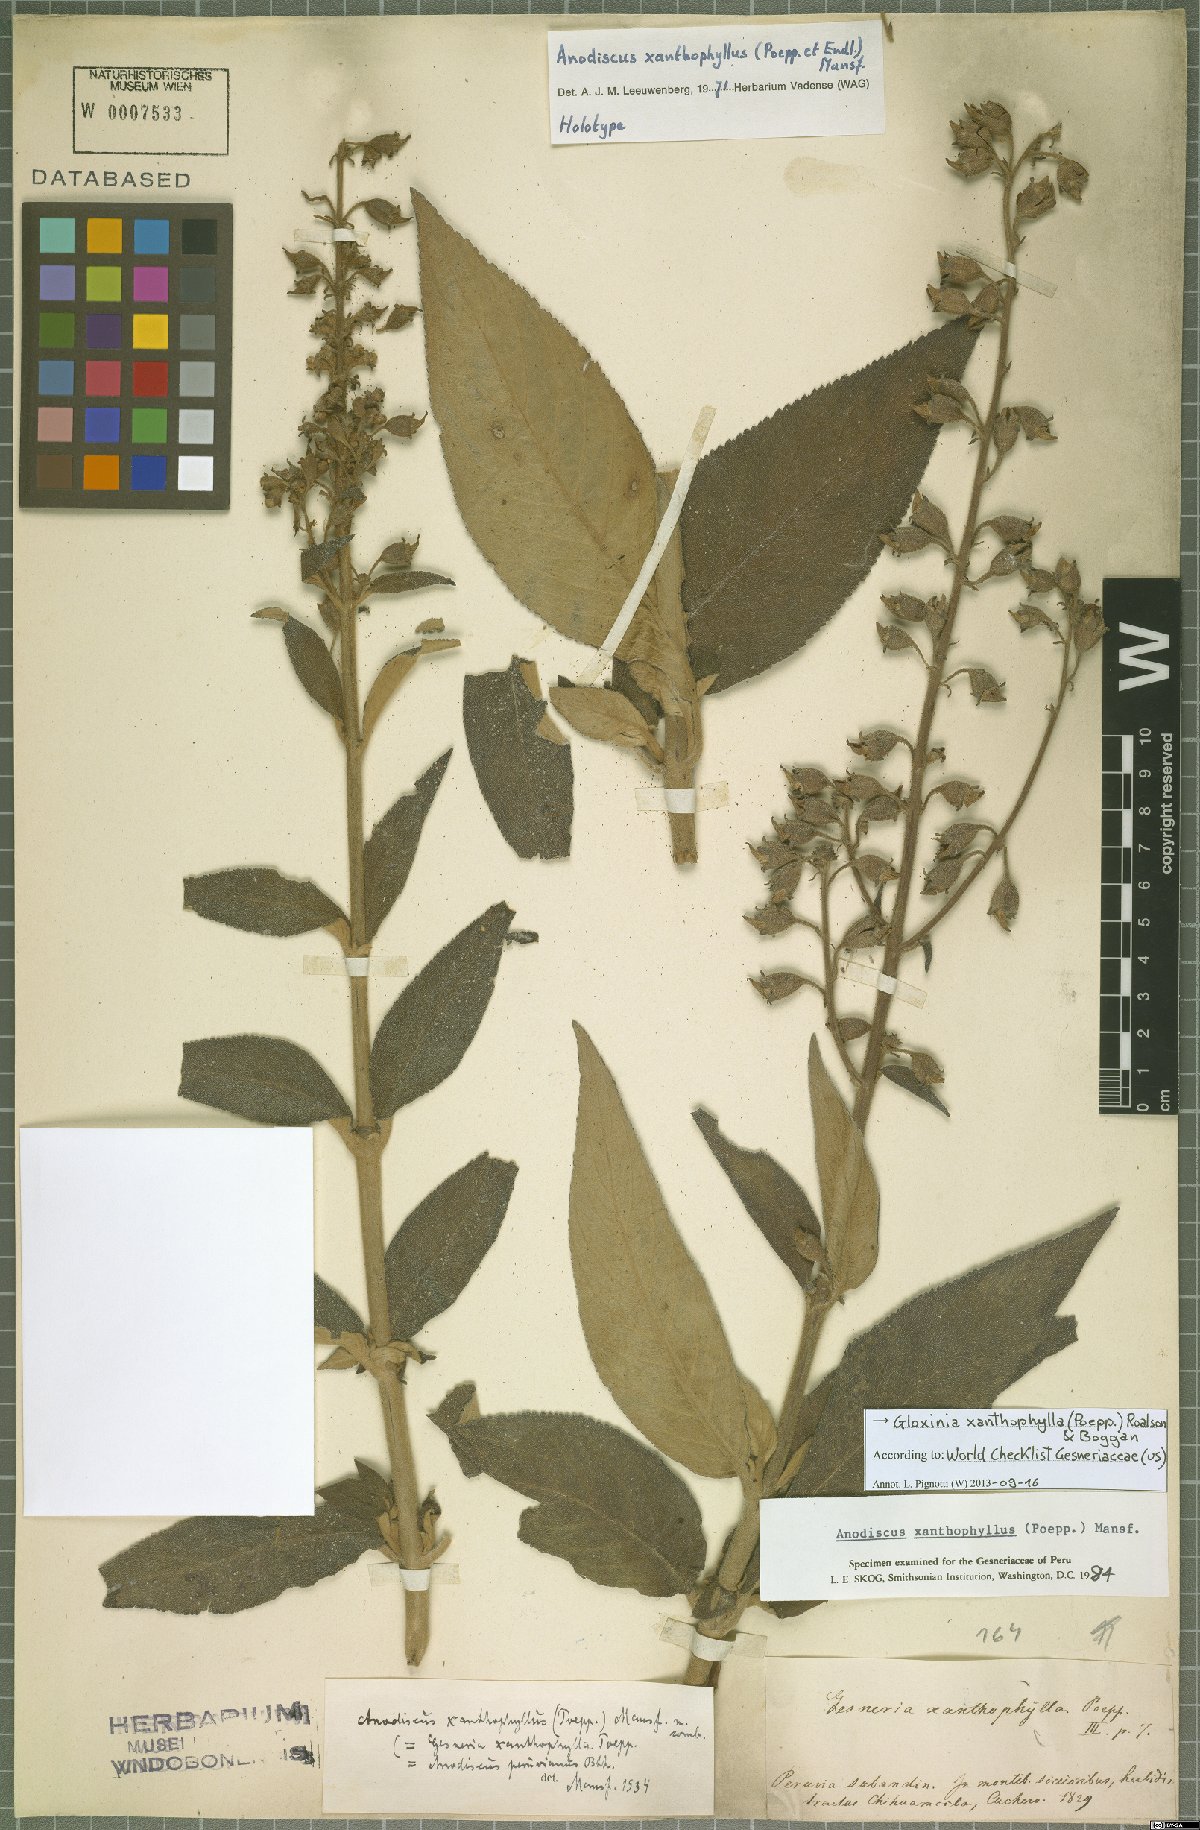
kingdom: Plantae
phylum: Tracheophyta
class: Magnoliopsida
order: Lamiales
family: Gesneriaceae
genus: Gloxinia
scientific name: Gloxinia xanthophylla
